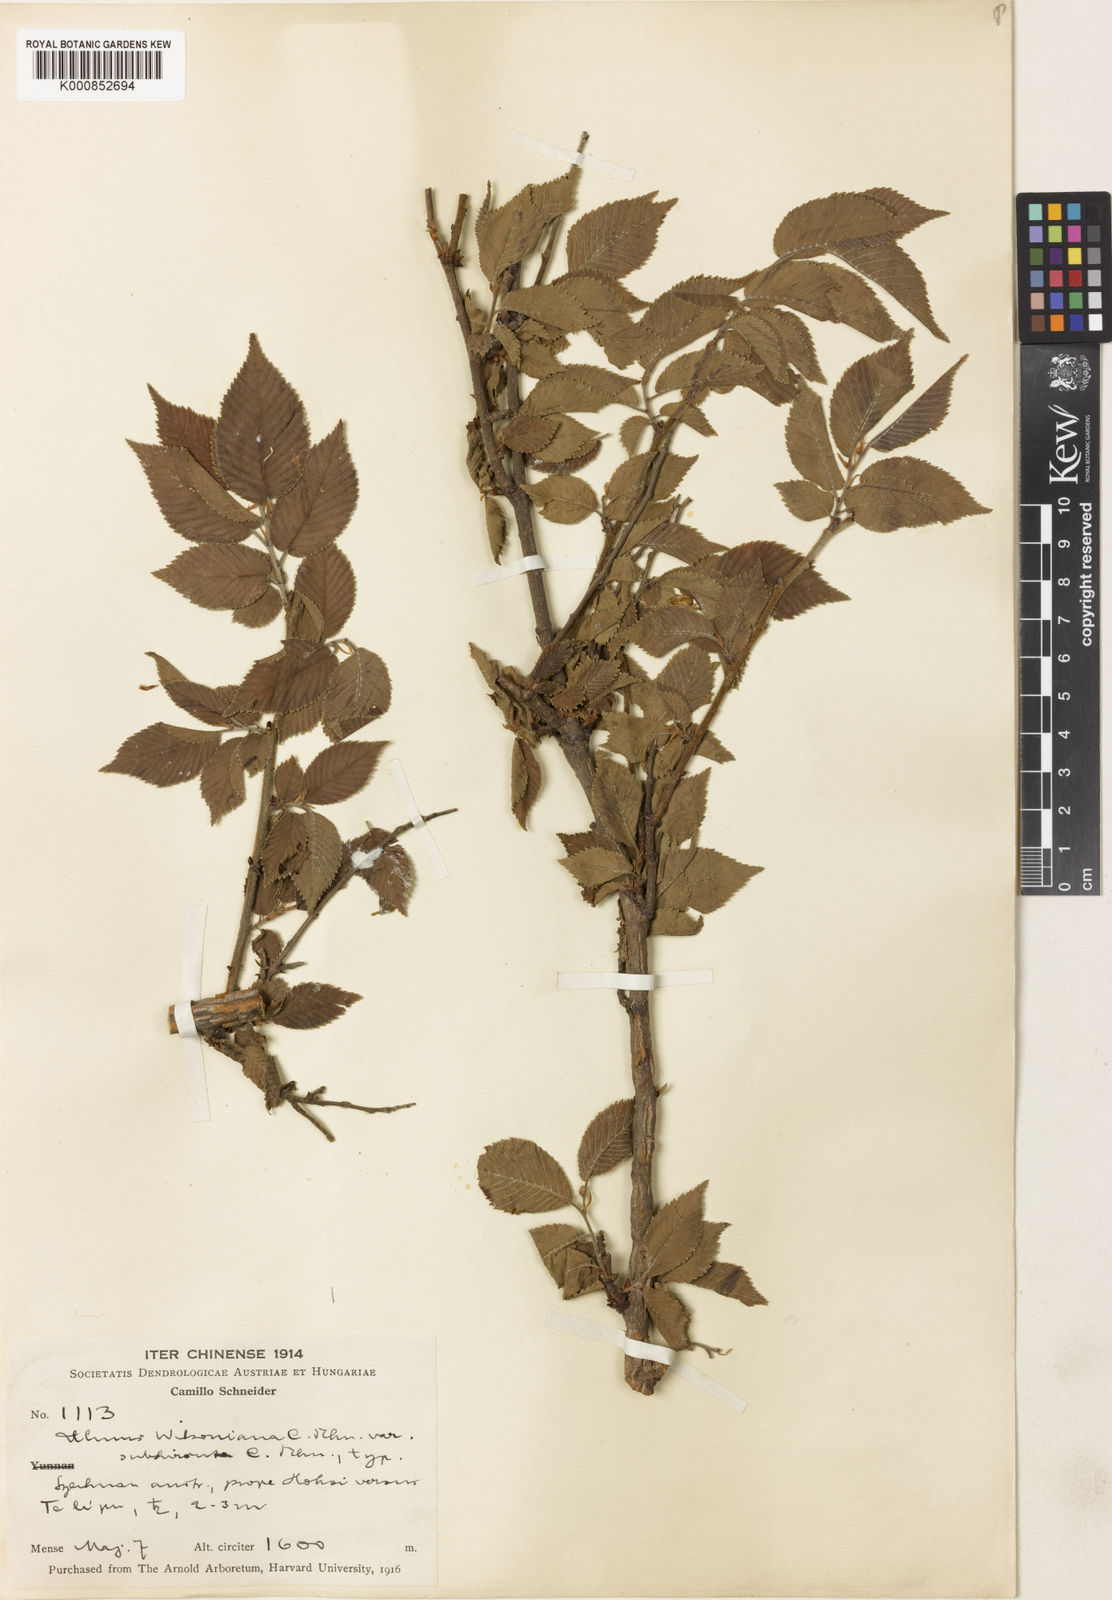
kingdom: Plantae
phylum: Tracheophyta
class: Magnoliopsida
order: Rosales
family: Ulmaceae
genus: Ulmus
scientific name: Ulmus chumlia
